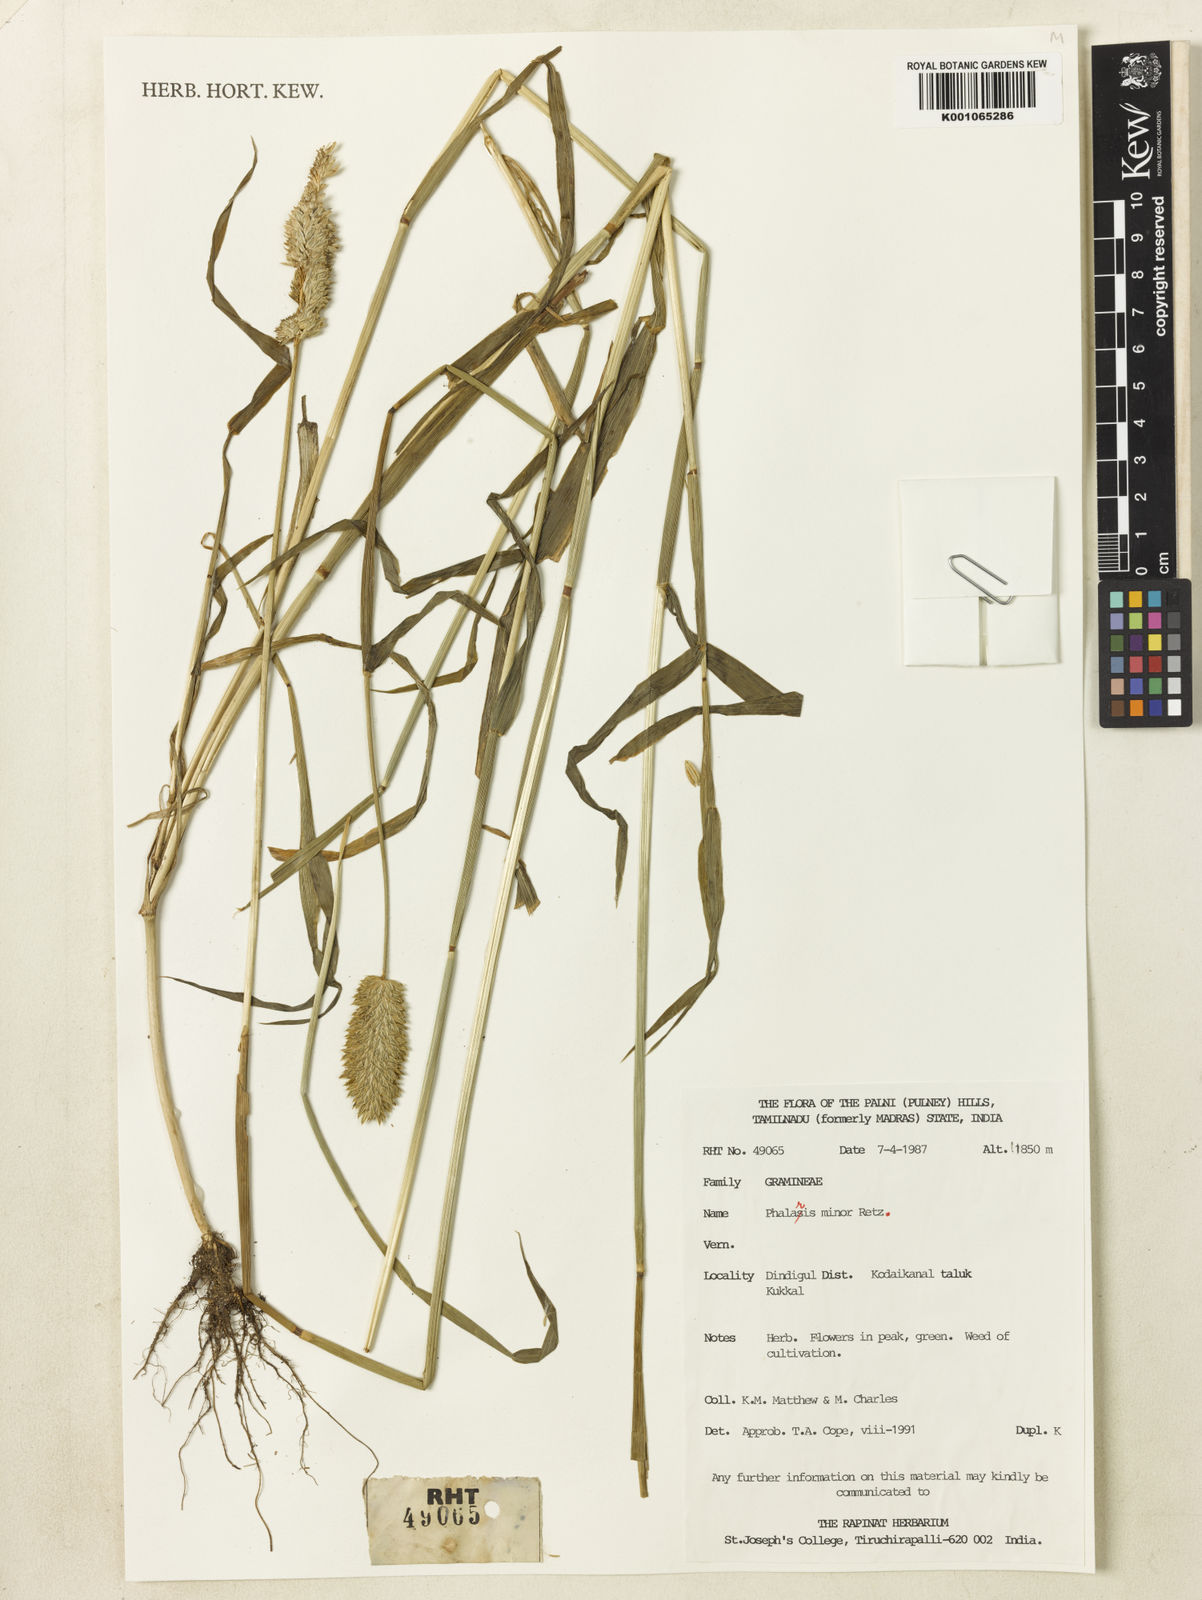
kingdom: Plantae
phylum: Tracheophyta
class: Liliopsida
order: Poales
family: Poaceae
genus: Phalaris
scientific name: Phalaris arundinacea
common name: Reed canary-grass
